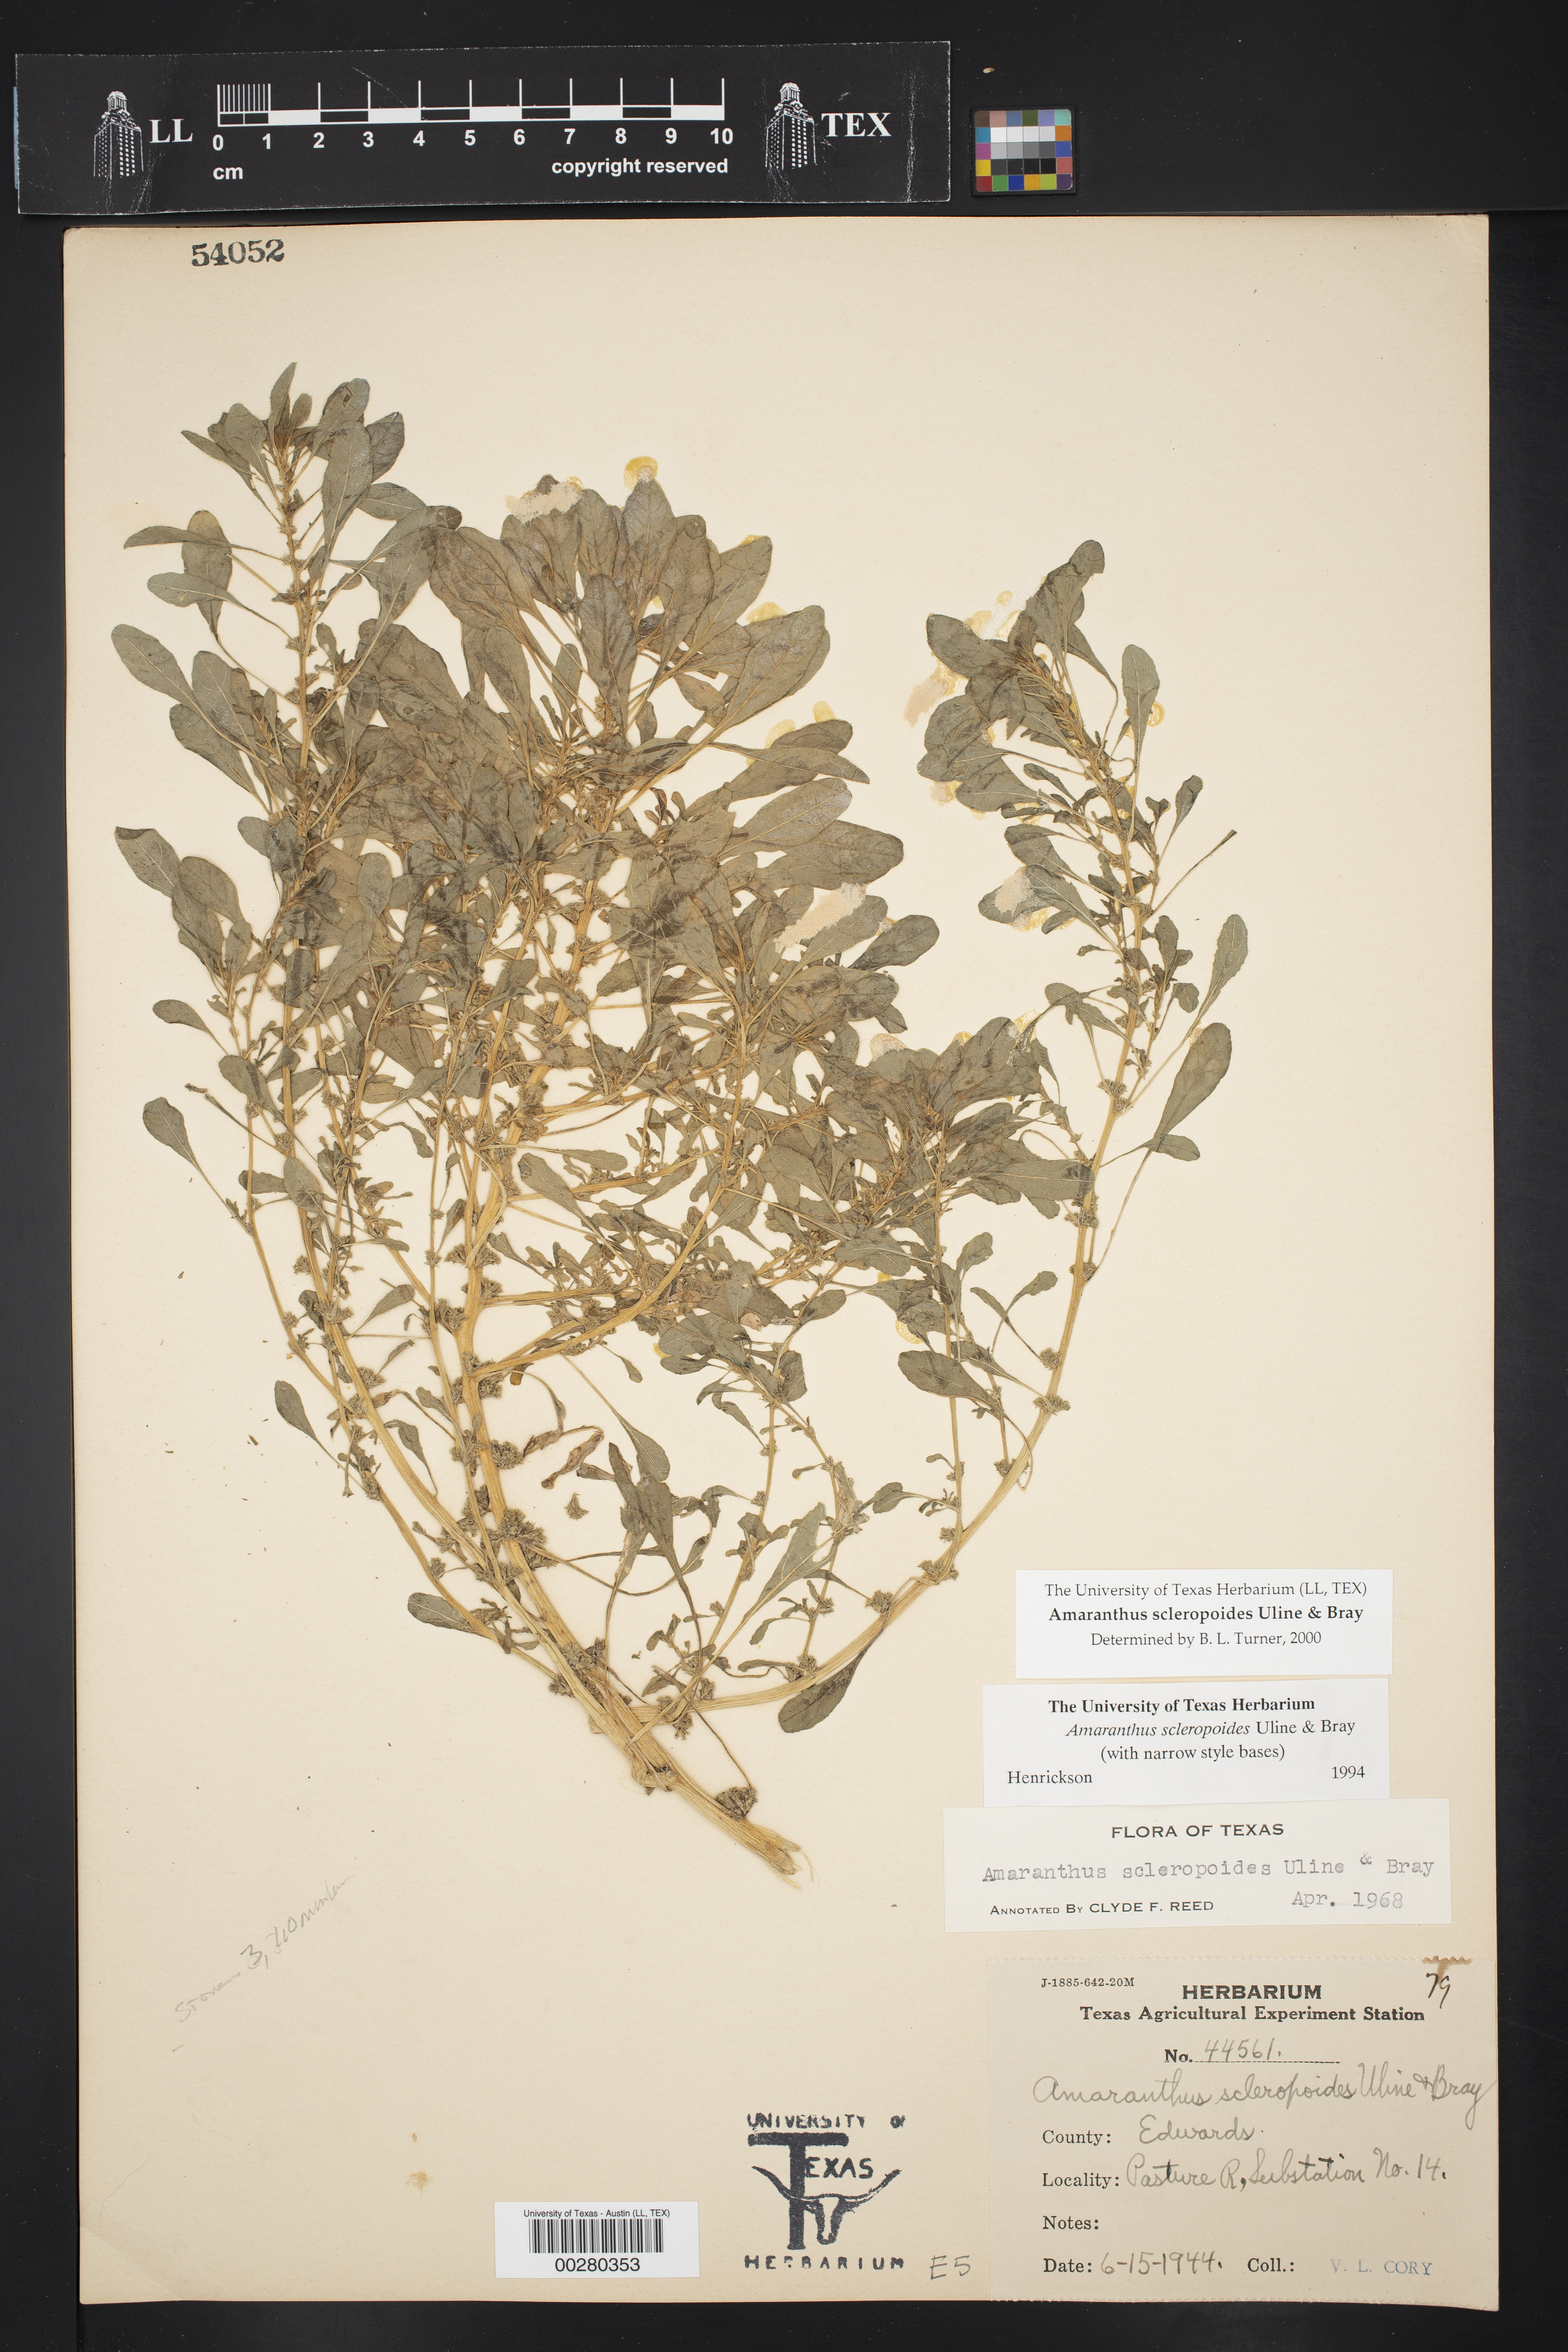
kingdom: Plantae
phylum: Tracheophyta
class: Magnoliopsida
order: Caryophyllales
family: Amaranthaceae
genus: Amaranthus
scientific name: Amaranthus scleropoides
